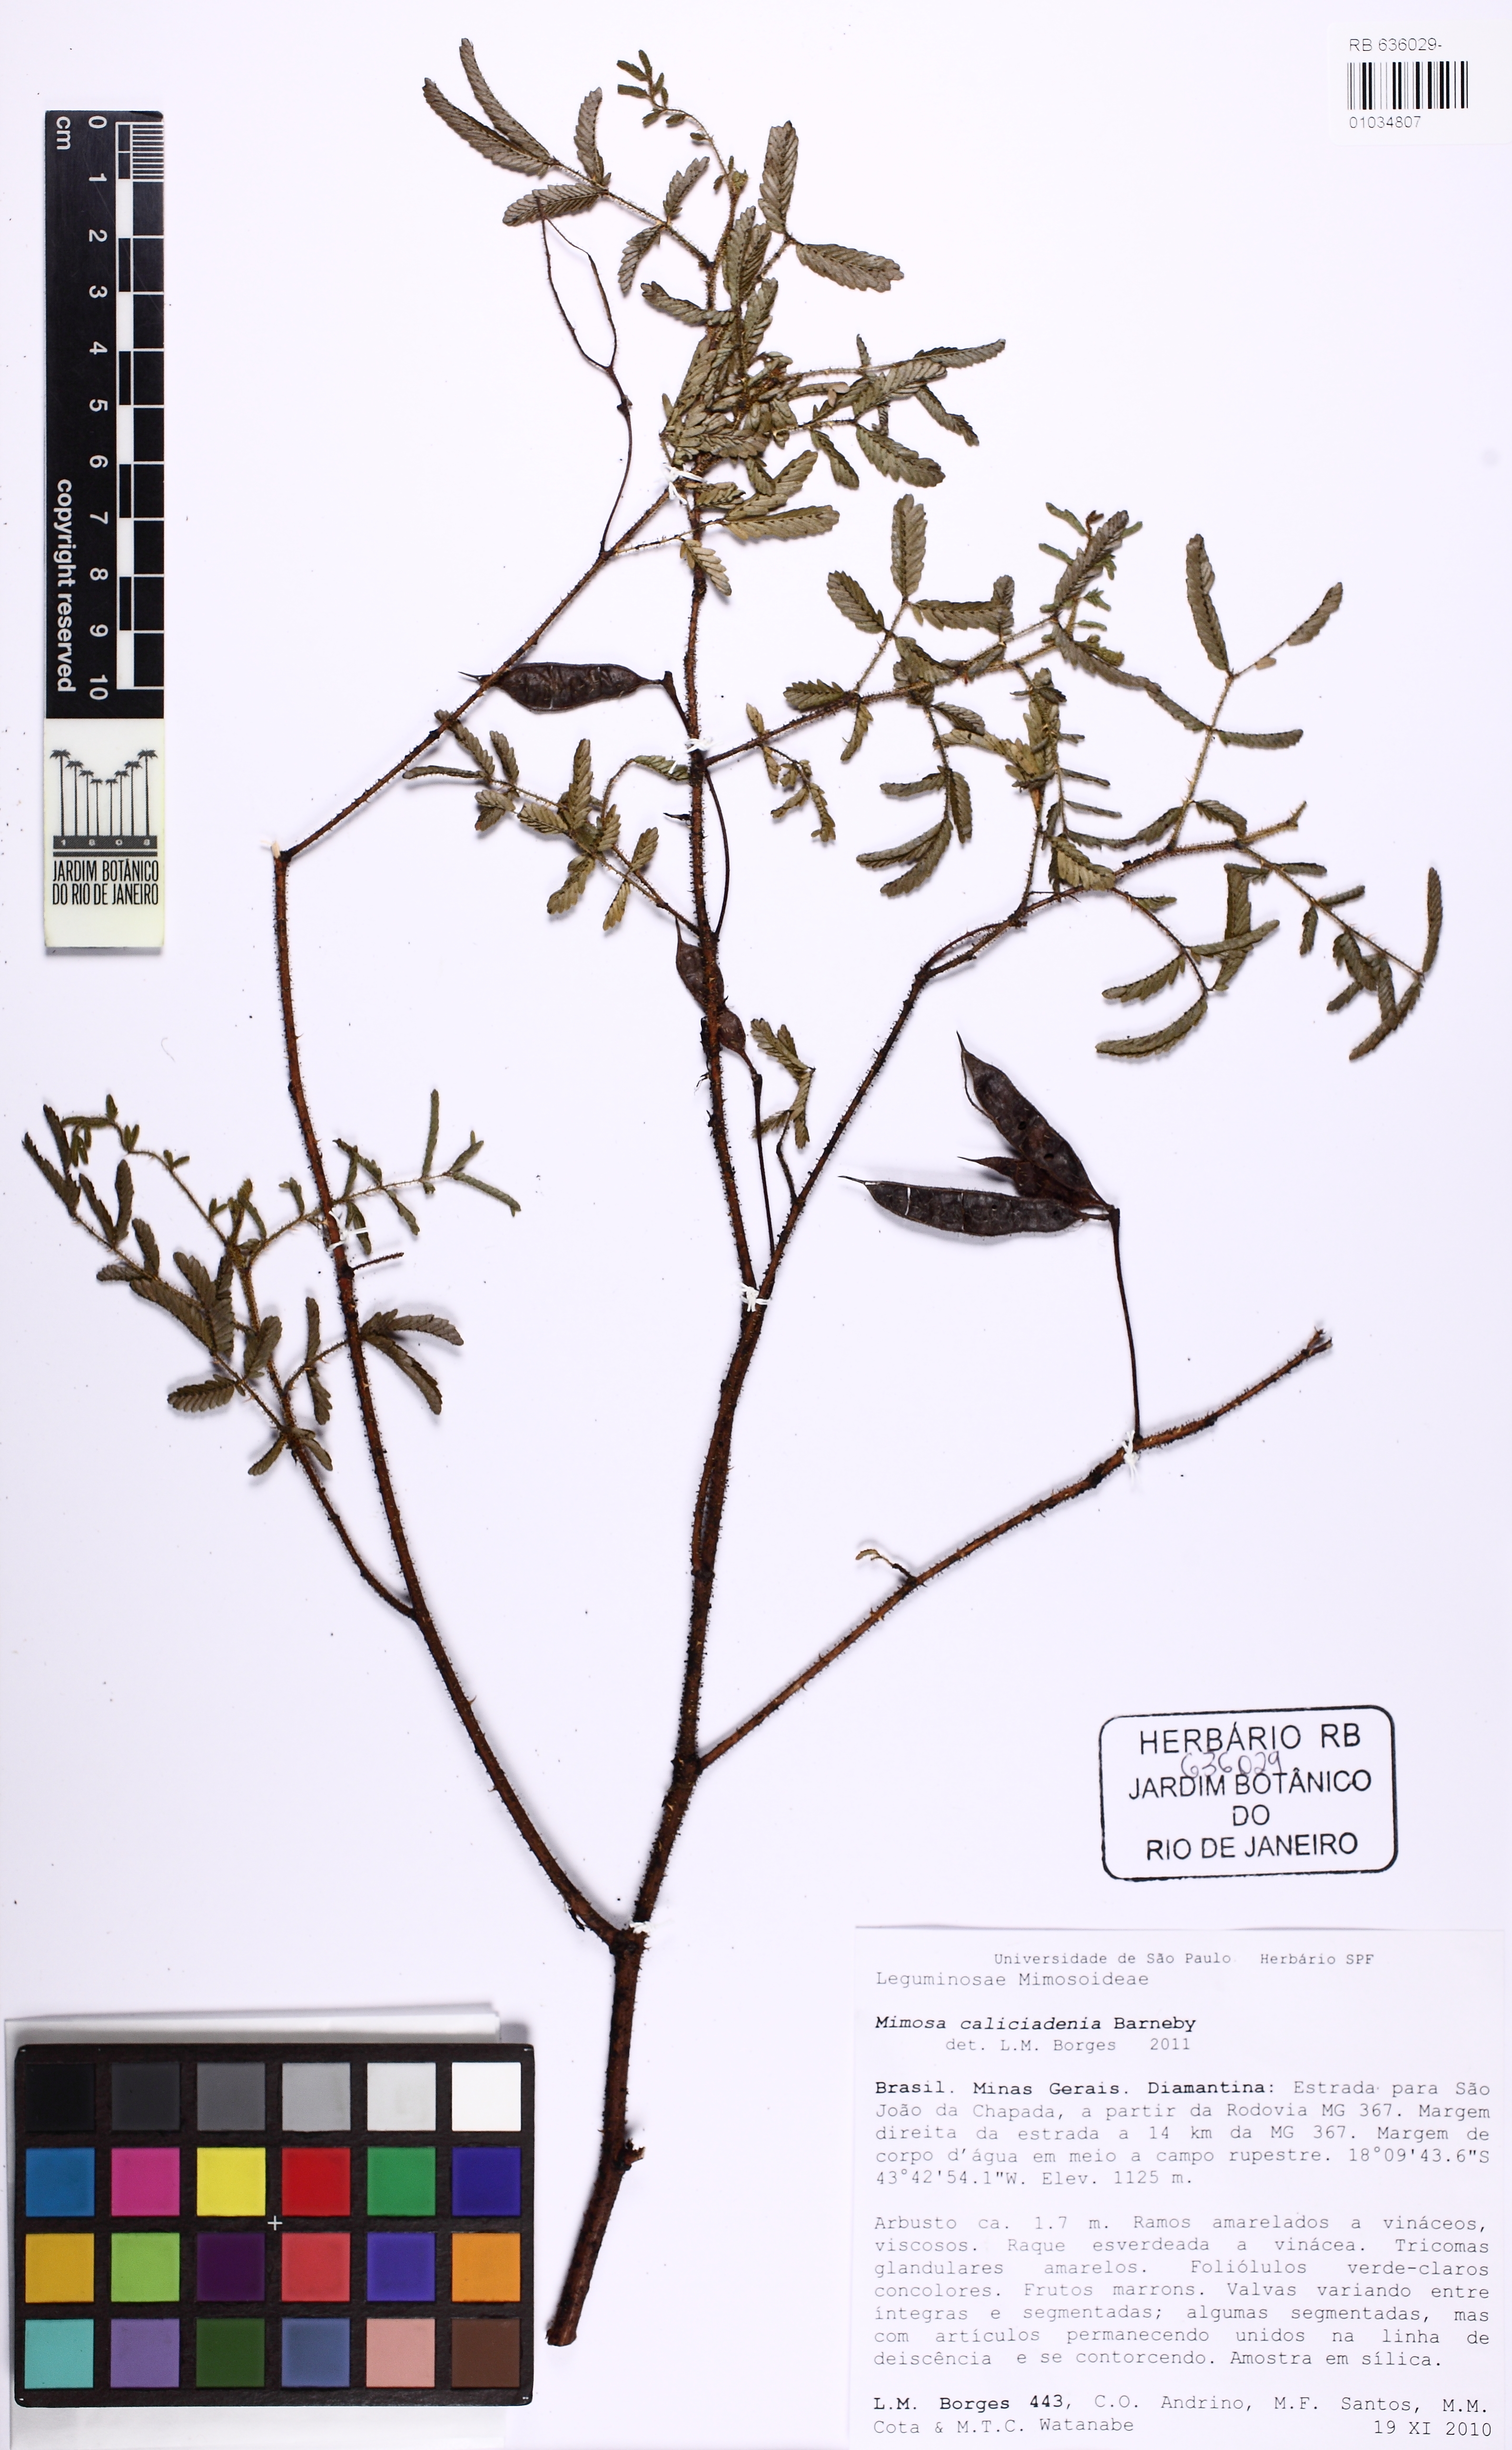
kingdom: Plantae
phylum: Tracheophyta
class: Magnoliopsida
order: Fabales
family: Fabaceae
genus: Mimosa
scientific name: Mimosa caliciadenia
